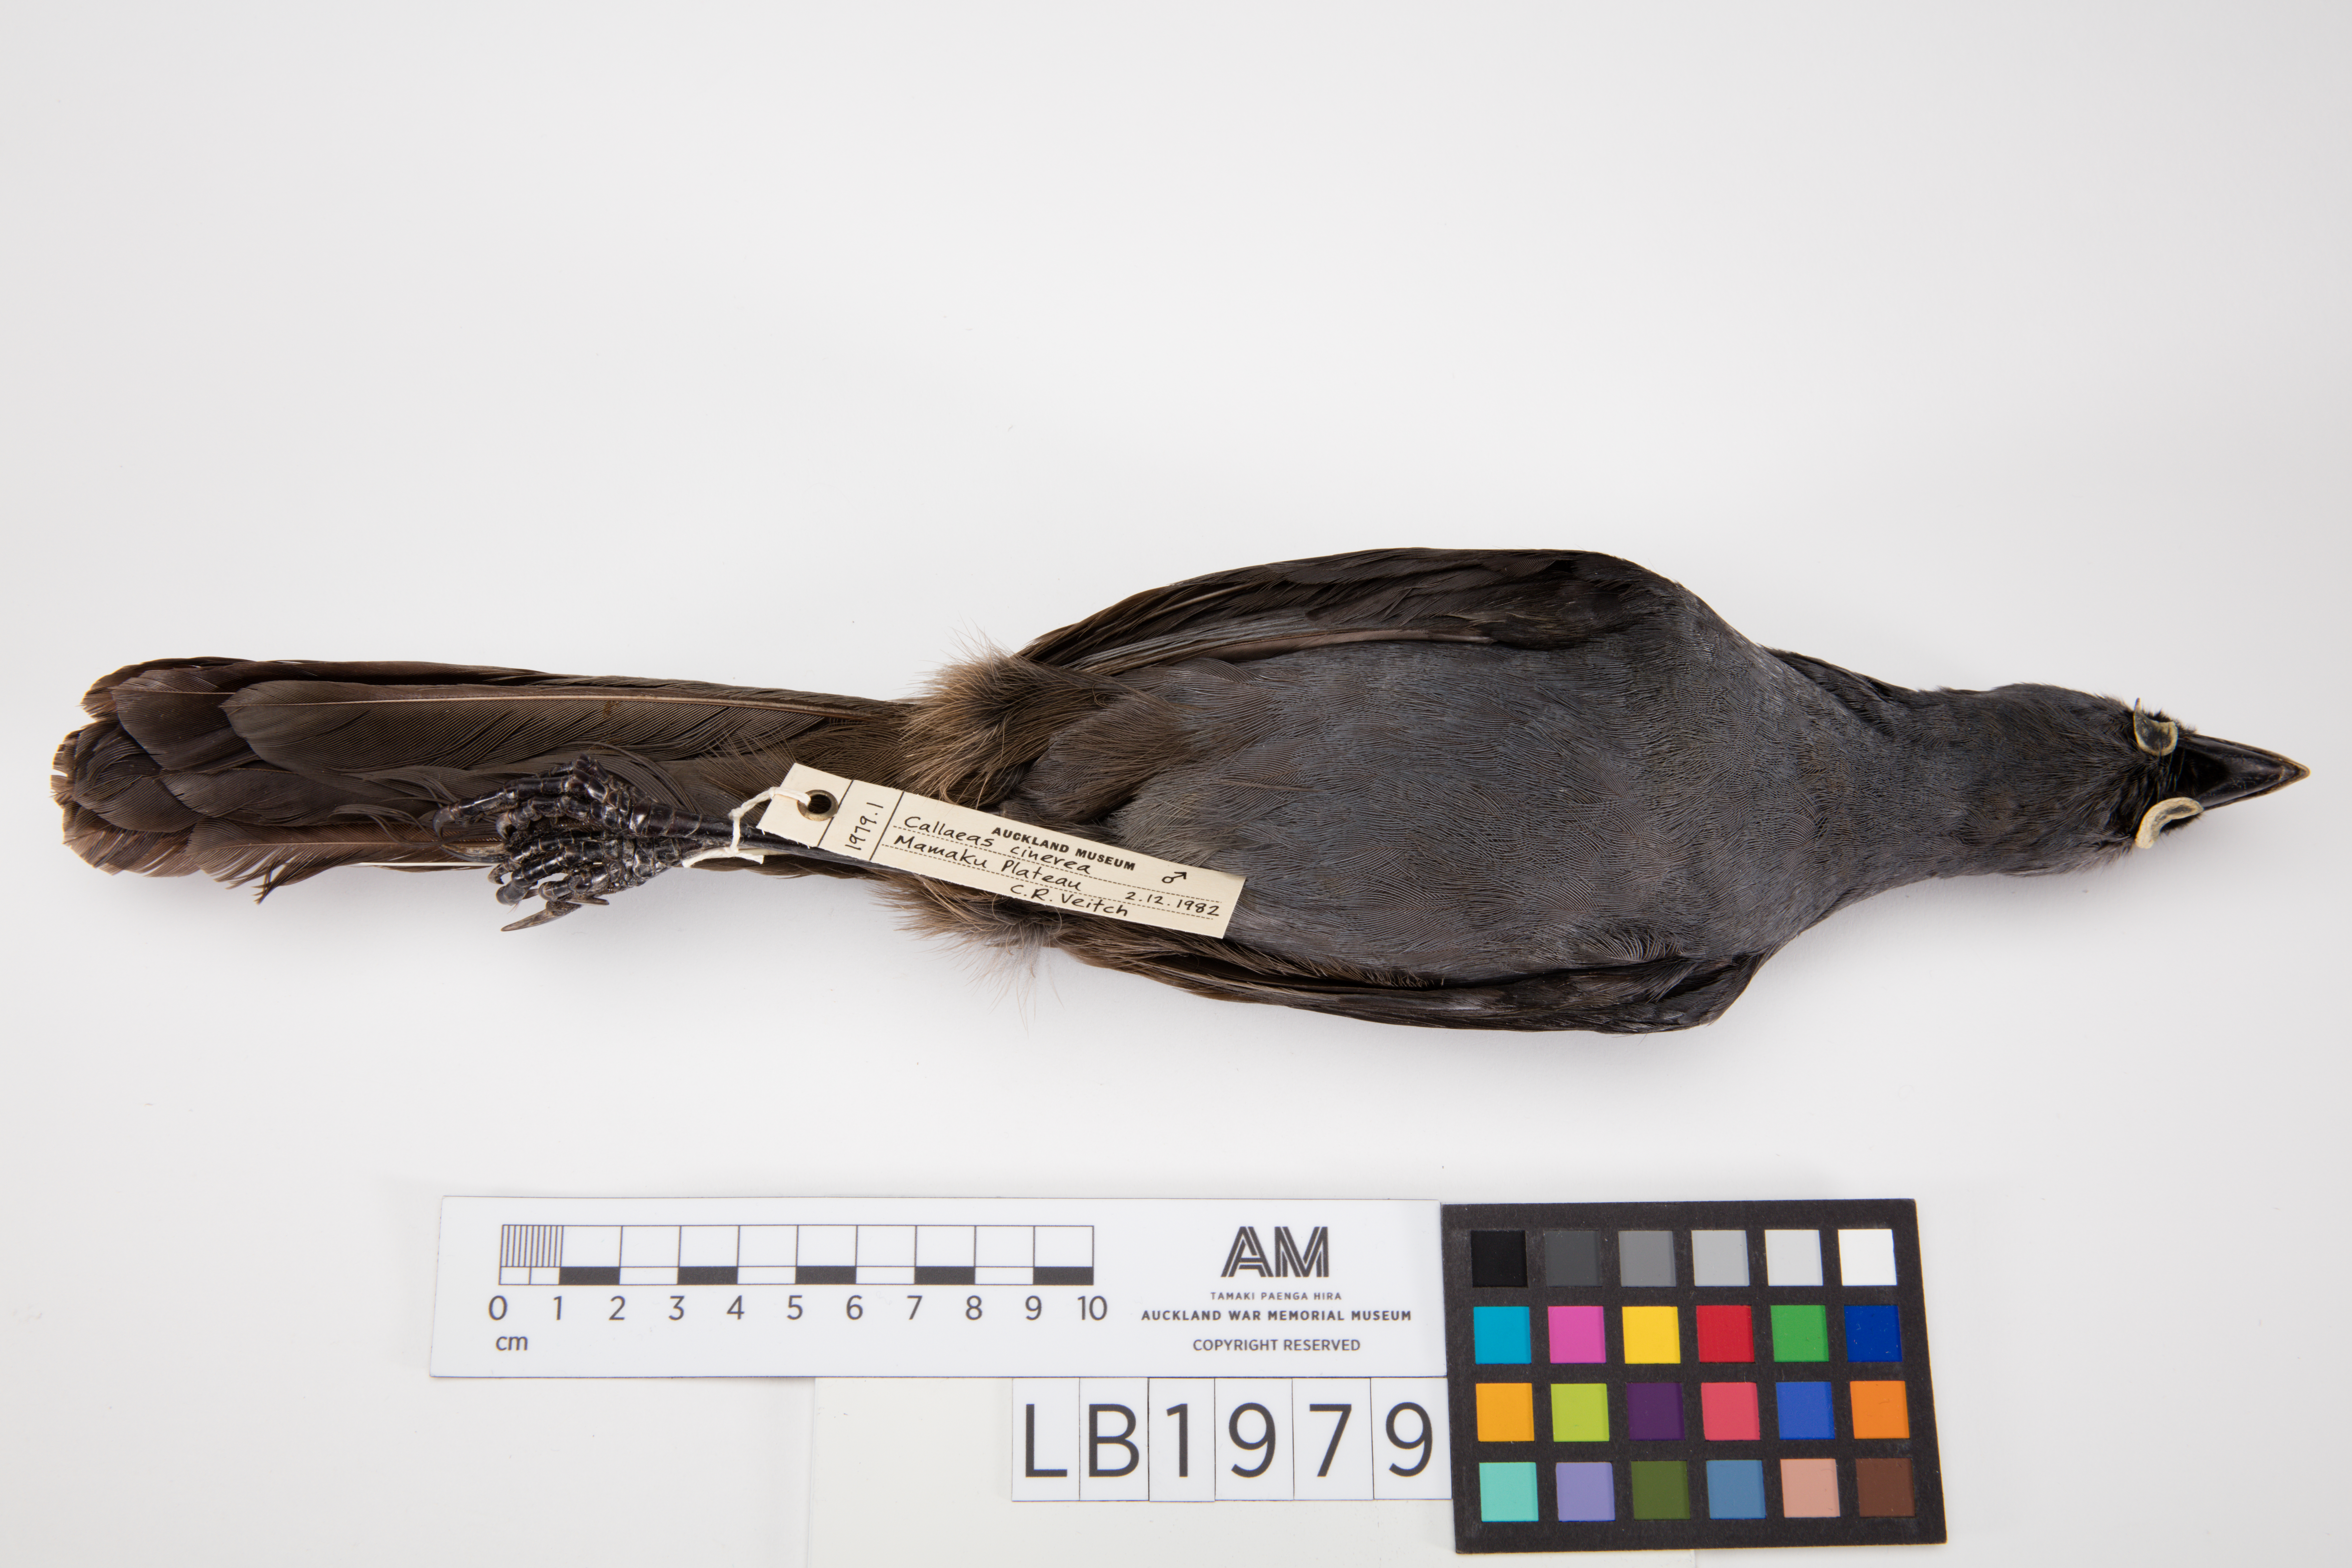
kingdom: Animalia
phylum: Chordata
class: Aves
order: Passeriformes
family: Callaeatidae
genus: Callaeas
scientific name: Callaeas cinereus
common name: South island kokako
